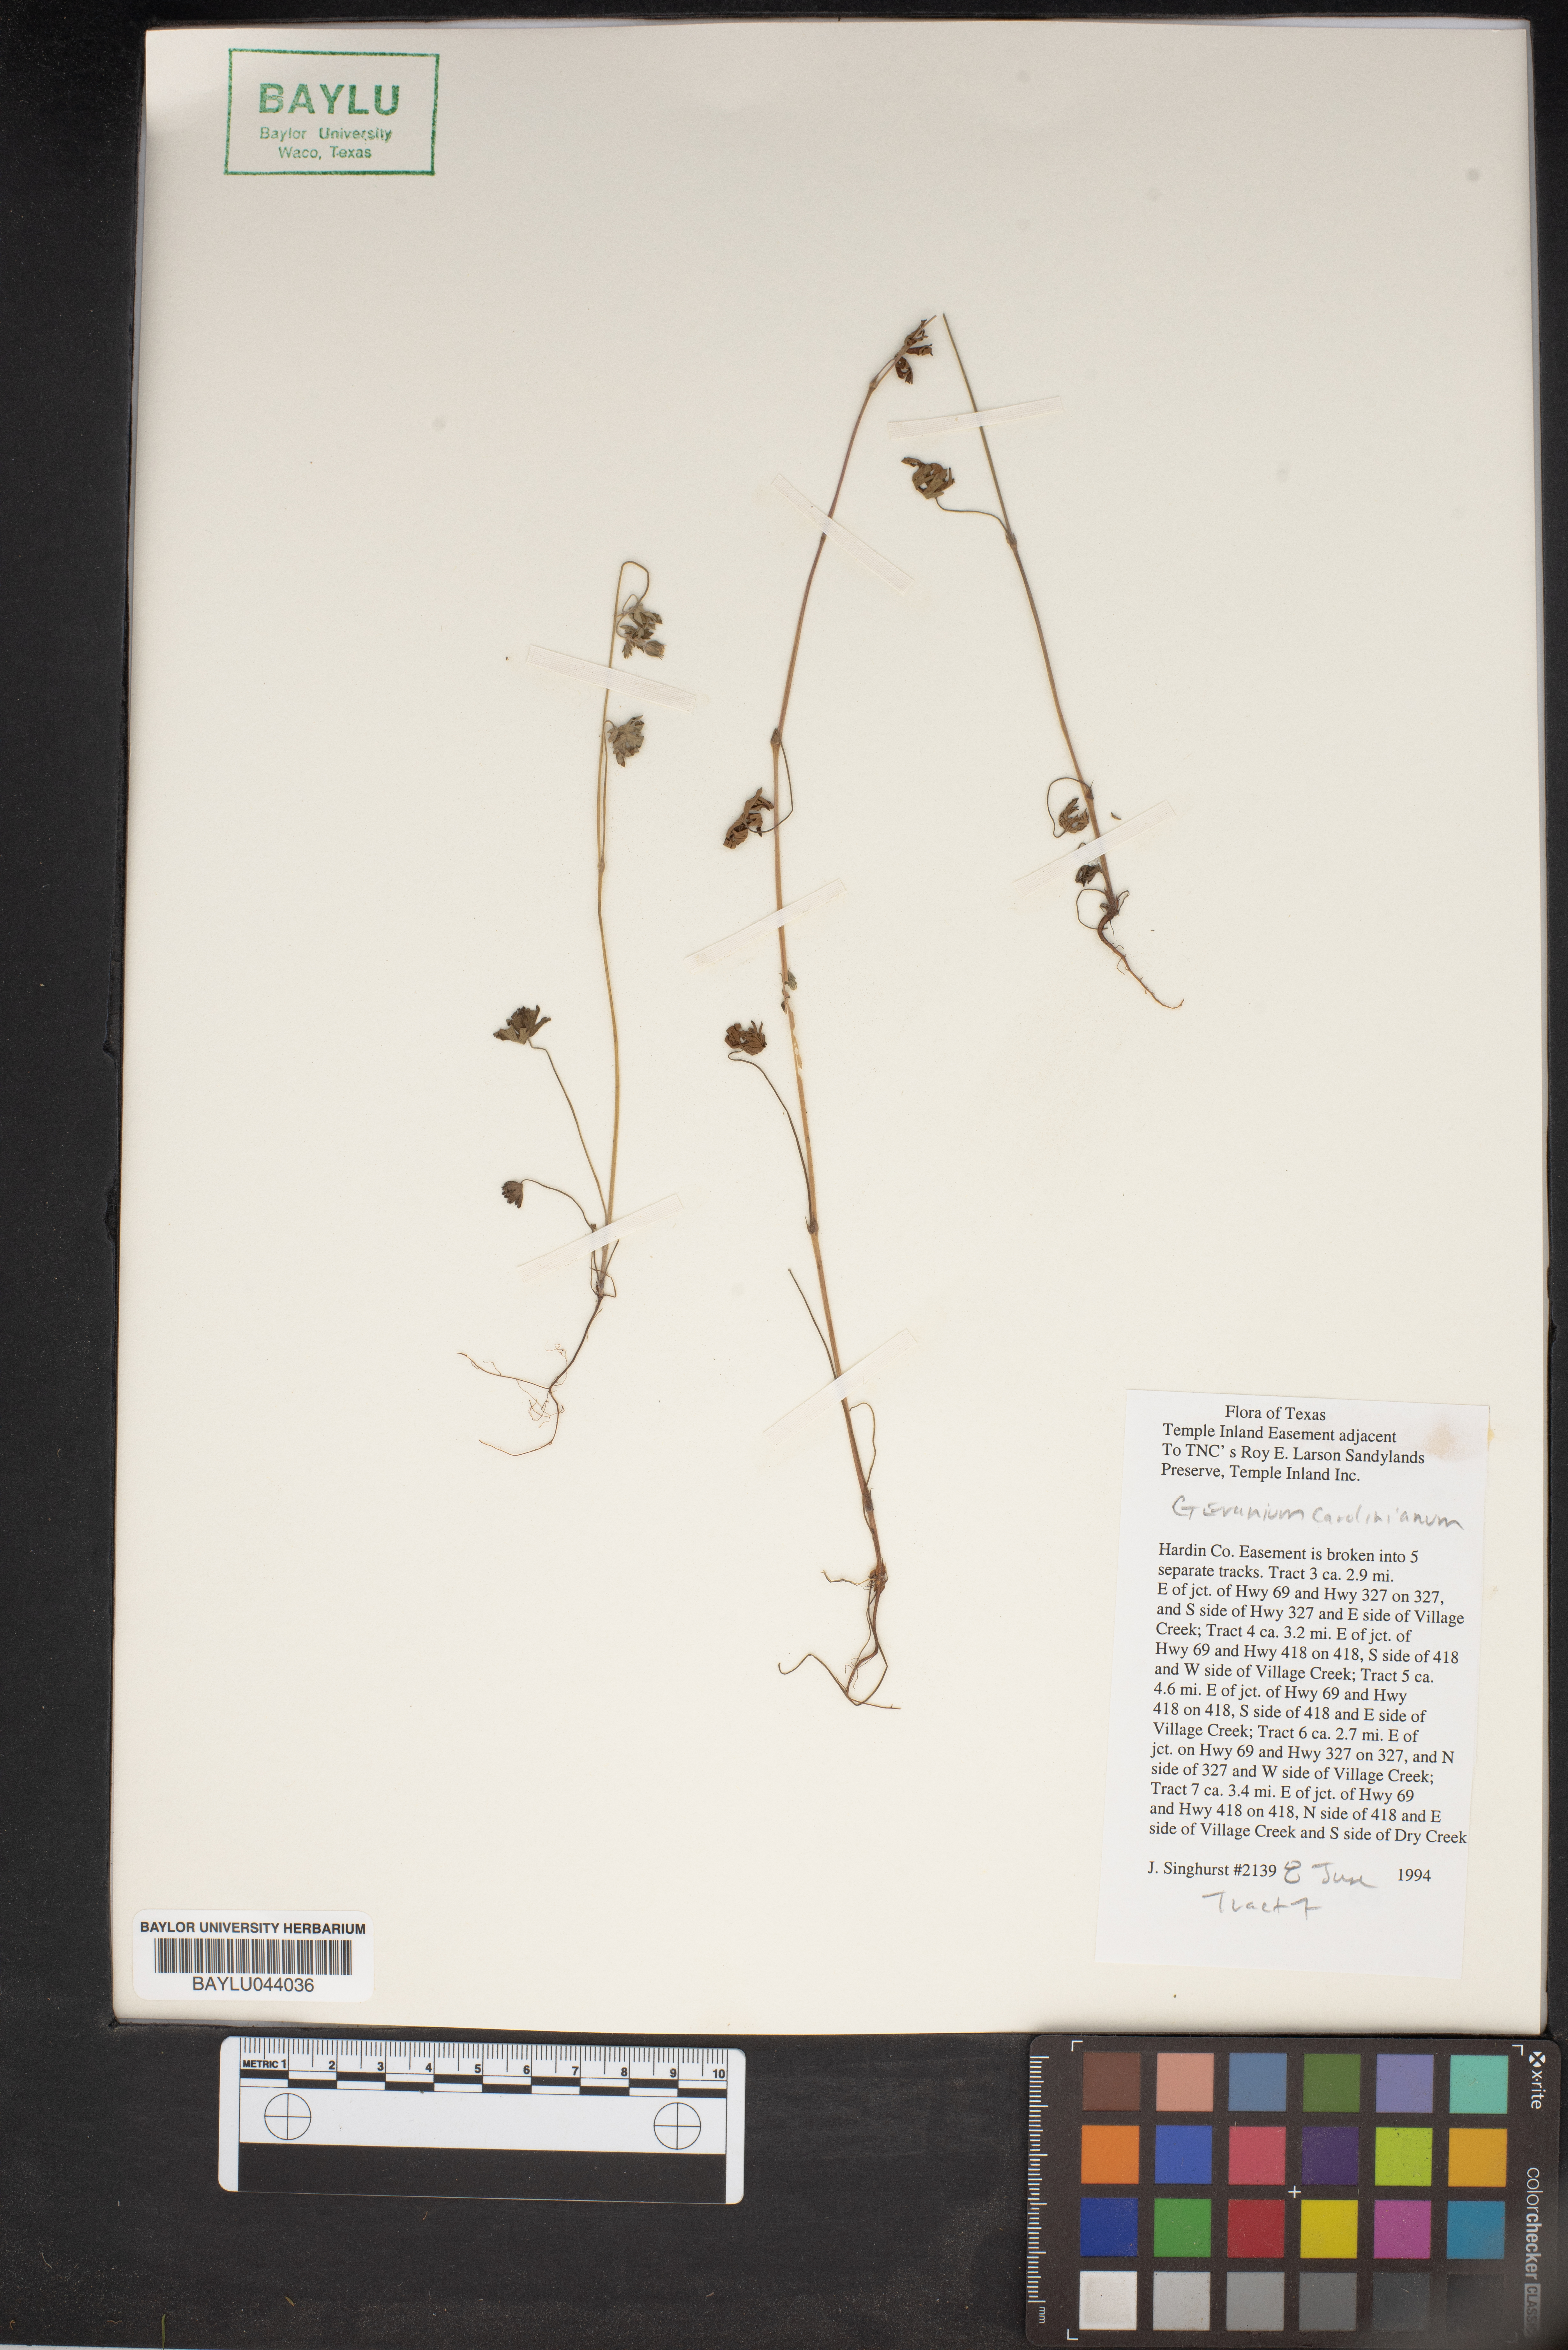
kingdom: Plantae
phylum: Tracheophyta
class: Magnoliopsida
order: Geraniales
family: Geraniaceae
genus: Geranium
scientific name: Geranium carolinianum
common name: Carolina crane's-bill
